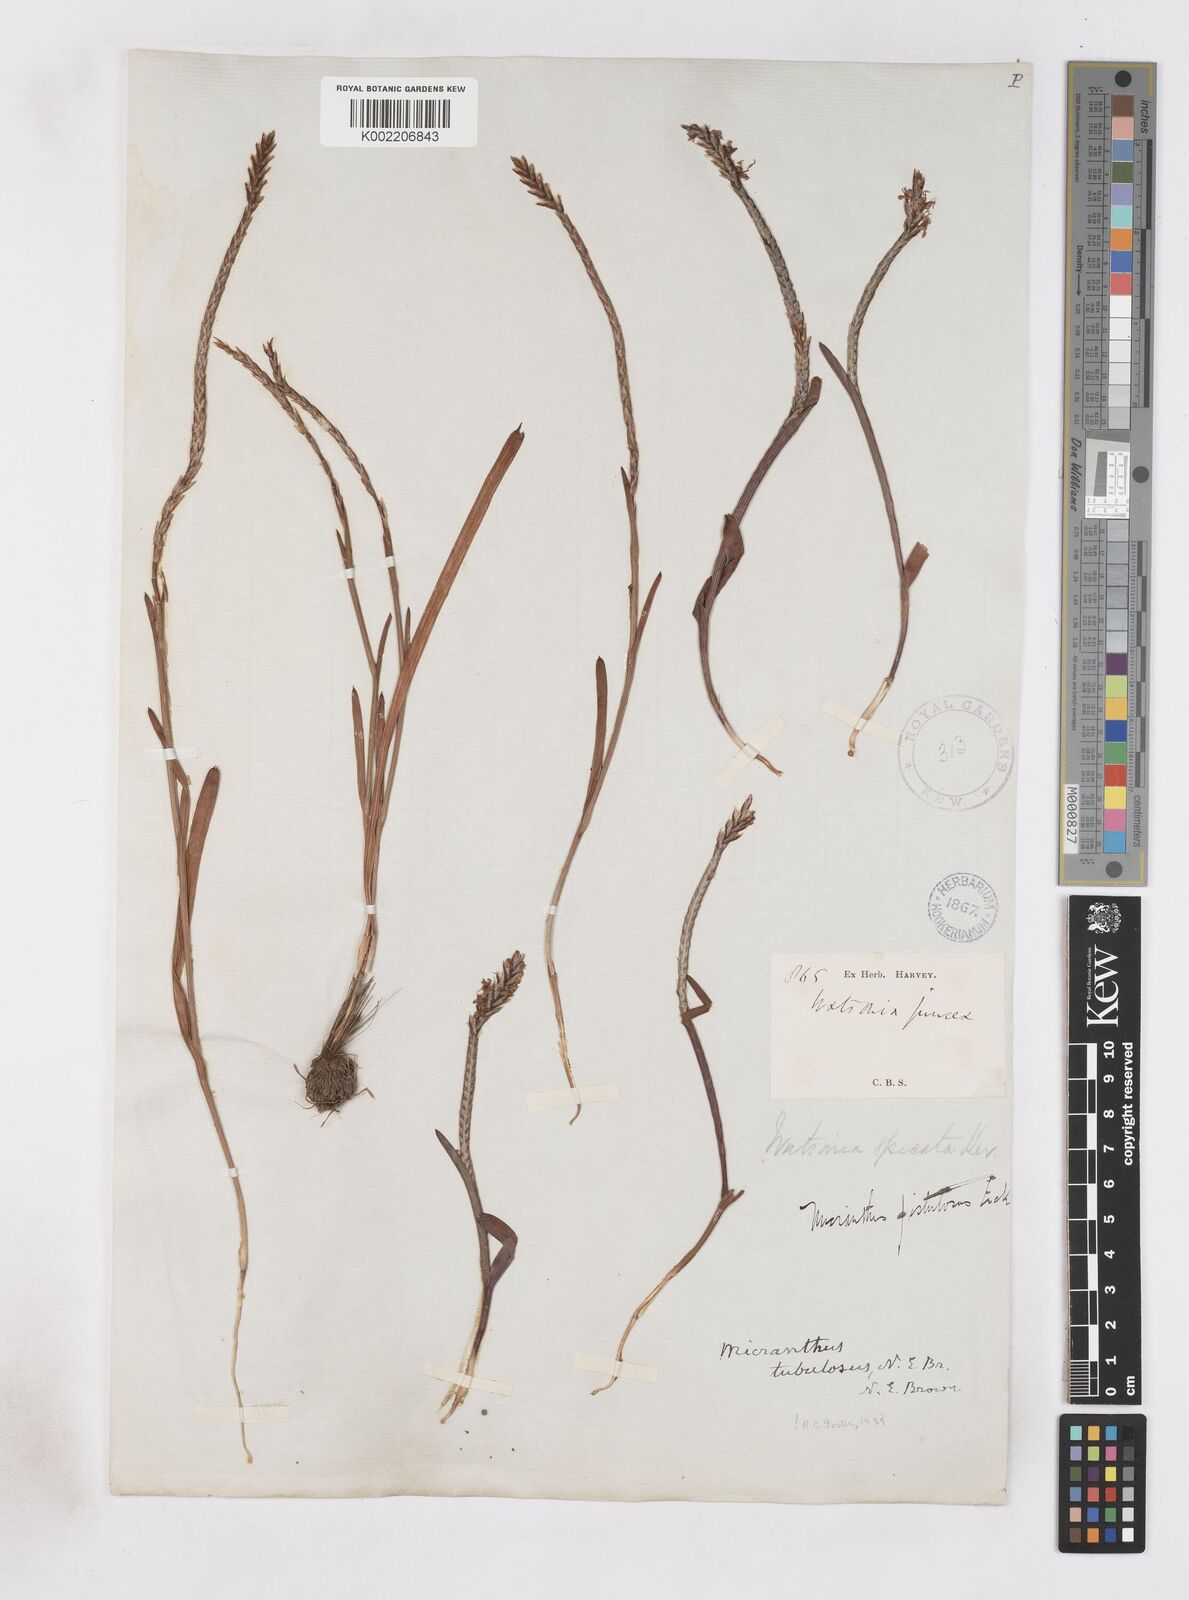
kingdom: Plantae
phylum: Tracheophyta
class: Liliopsida
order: Asparagales
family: Iridaceae
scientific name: Iridaceae
